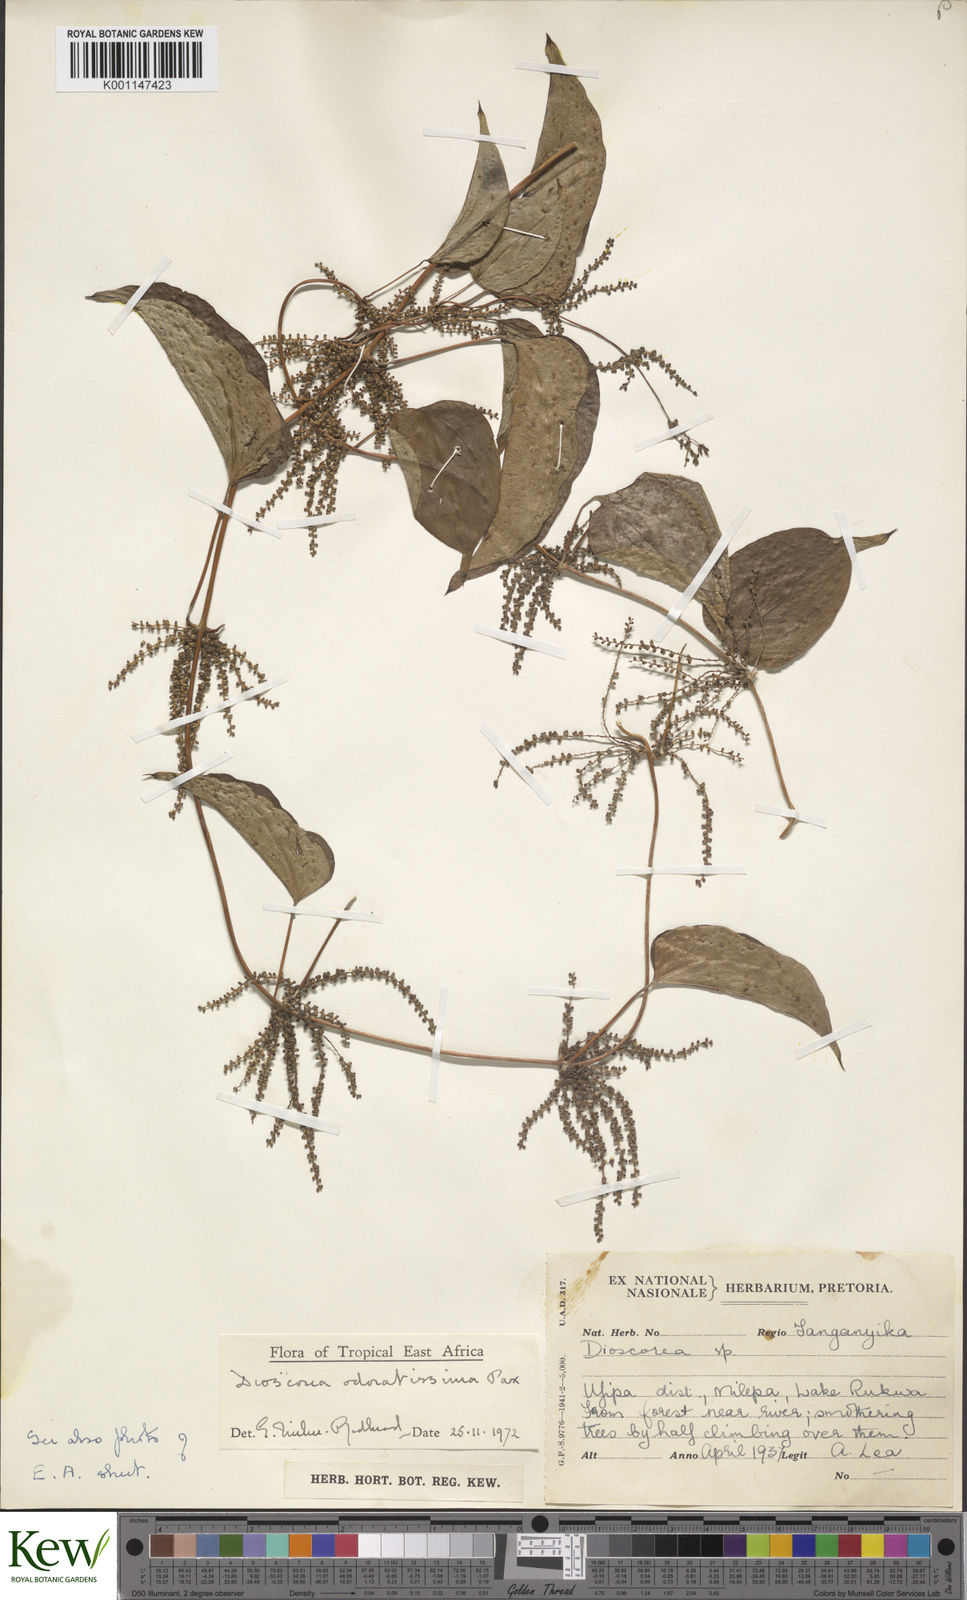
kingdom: Plantae
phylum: Tracheophyta
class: Liliopsida
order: Dioscoreales
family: Dioscoreaceae
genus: Dioscorea
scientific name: Dioscorea praehensilis
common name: Bush yam
